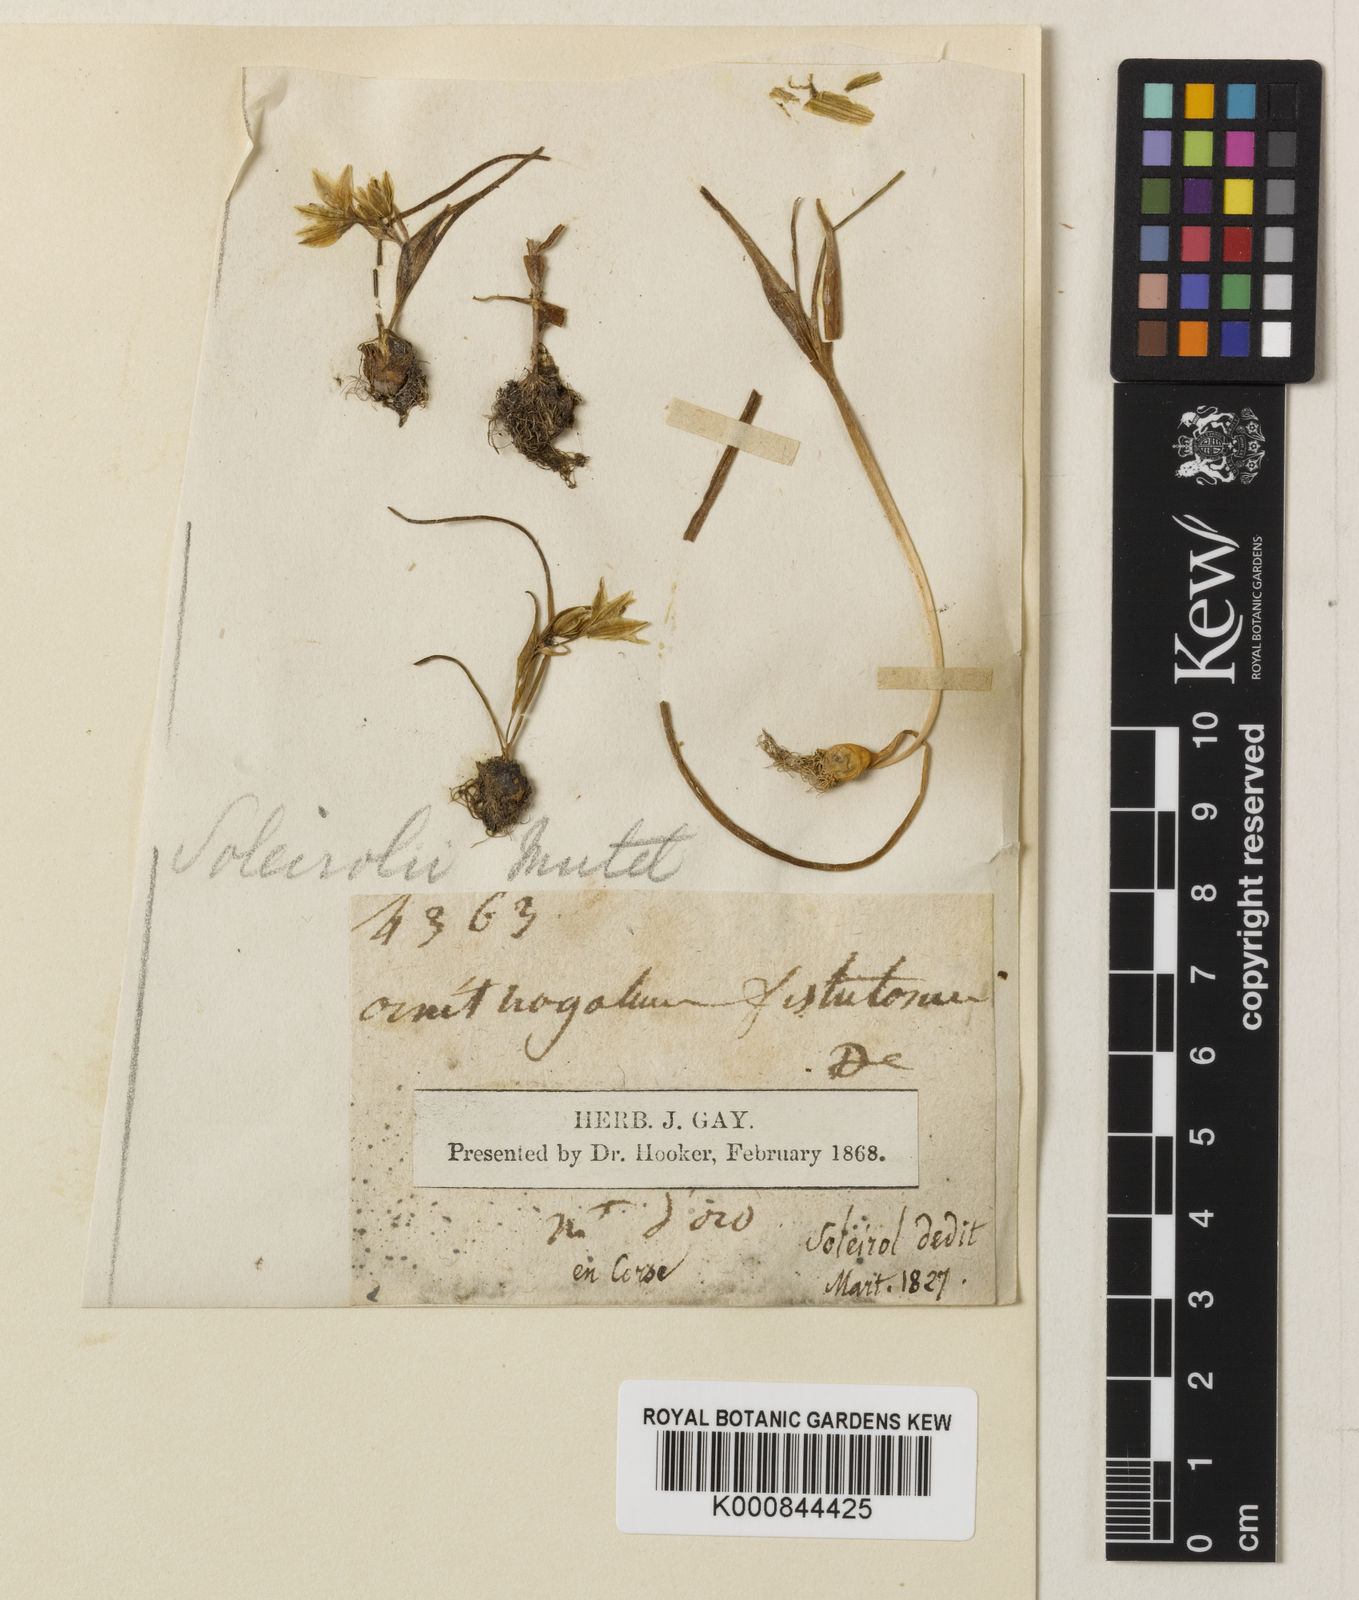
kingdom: Plantae
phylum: Tracheophyta
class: Liliopsida
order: Liliales
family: Liliaceae
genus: Gagea
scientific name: Gagea
